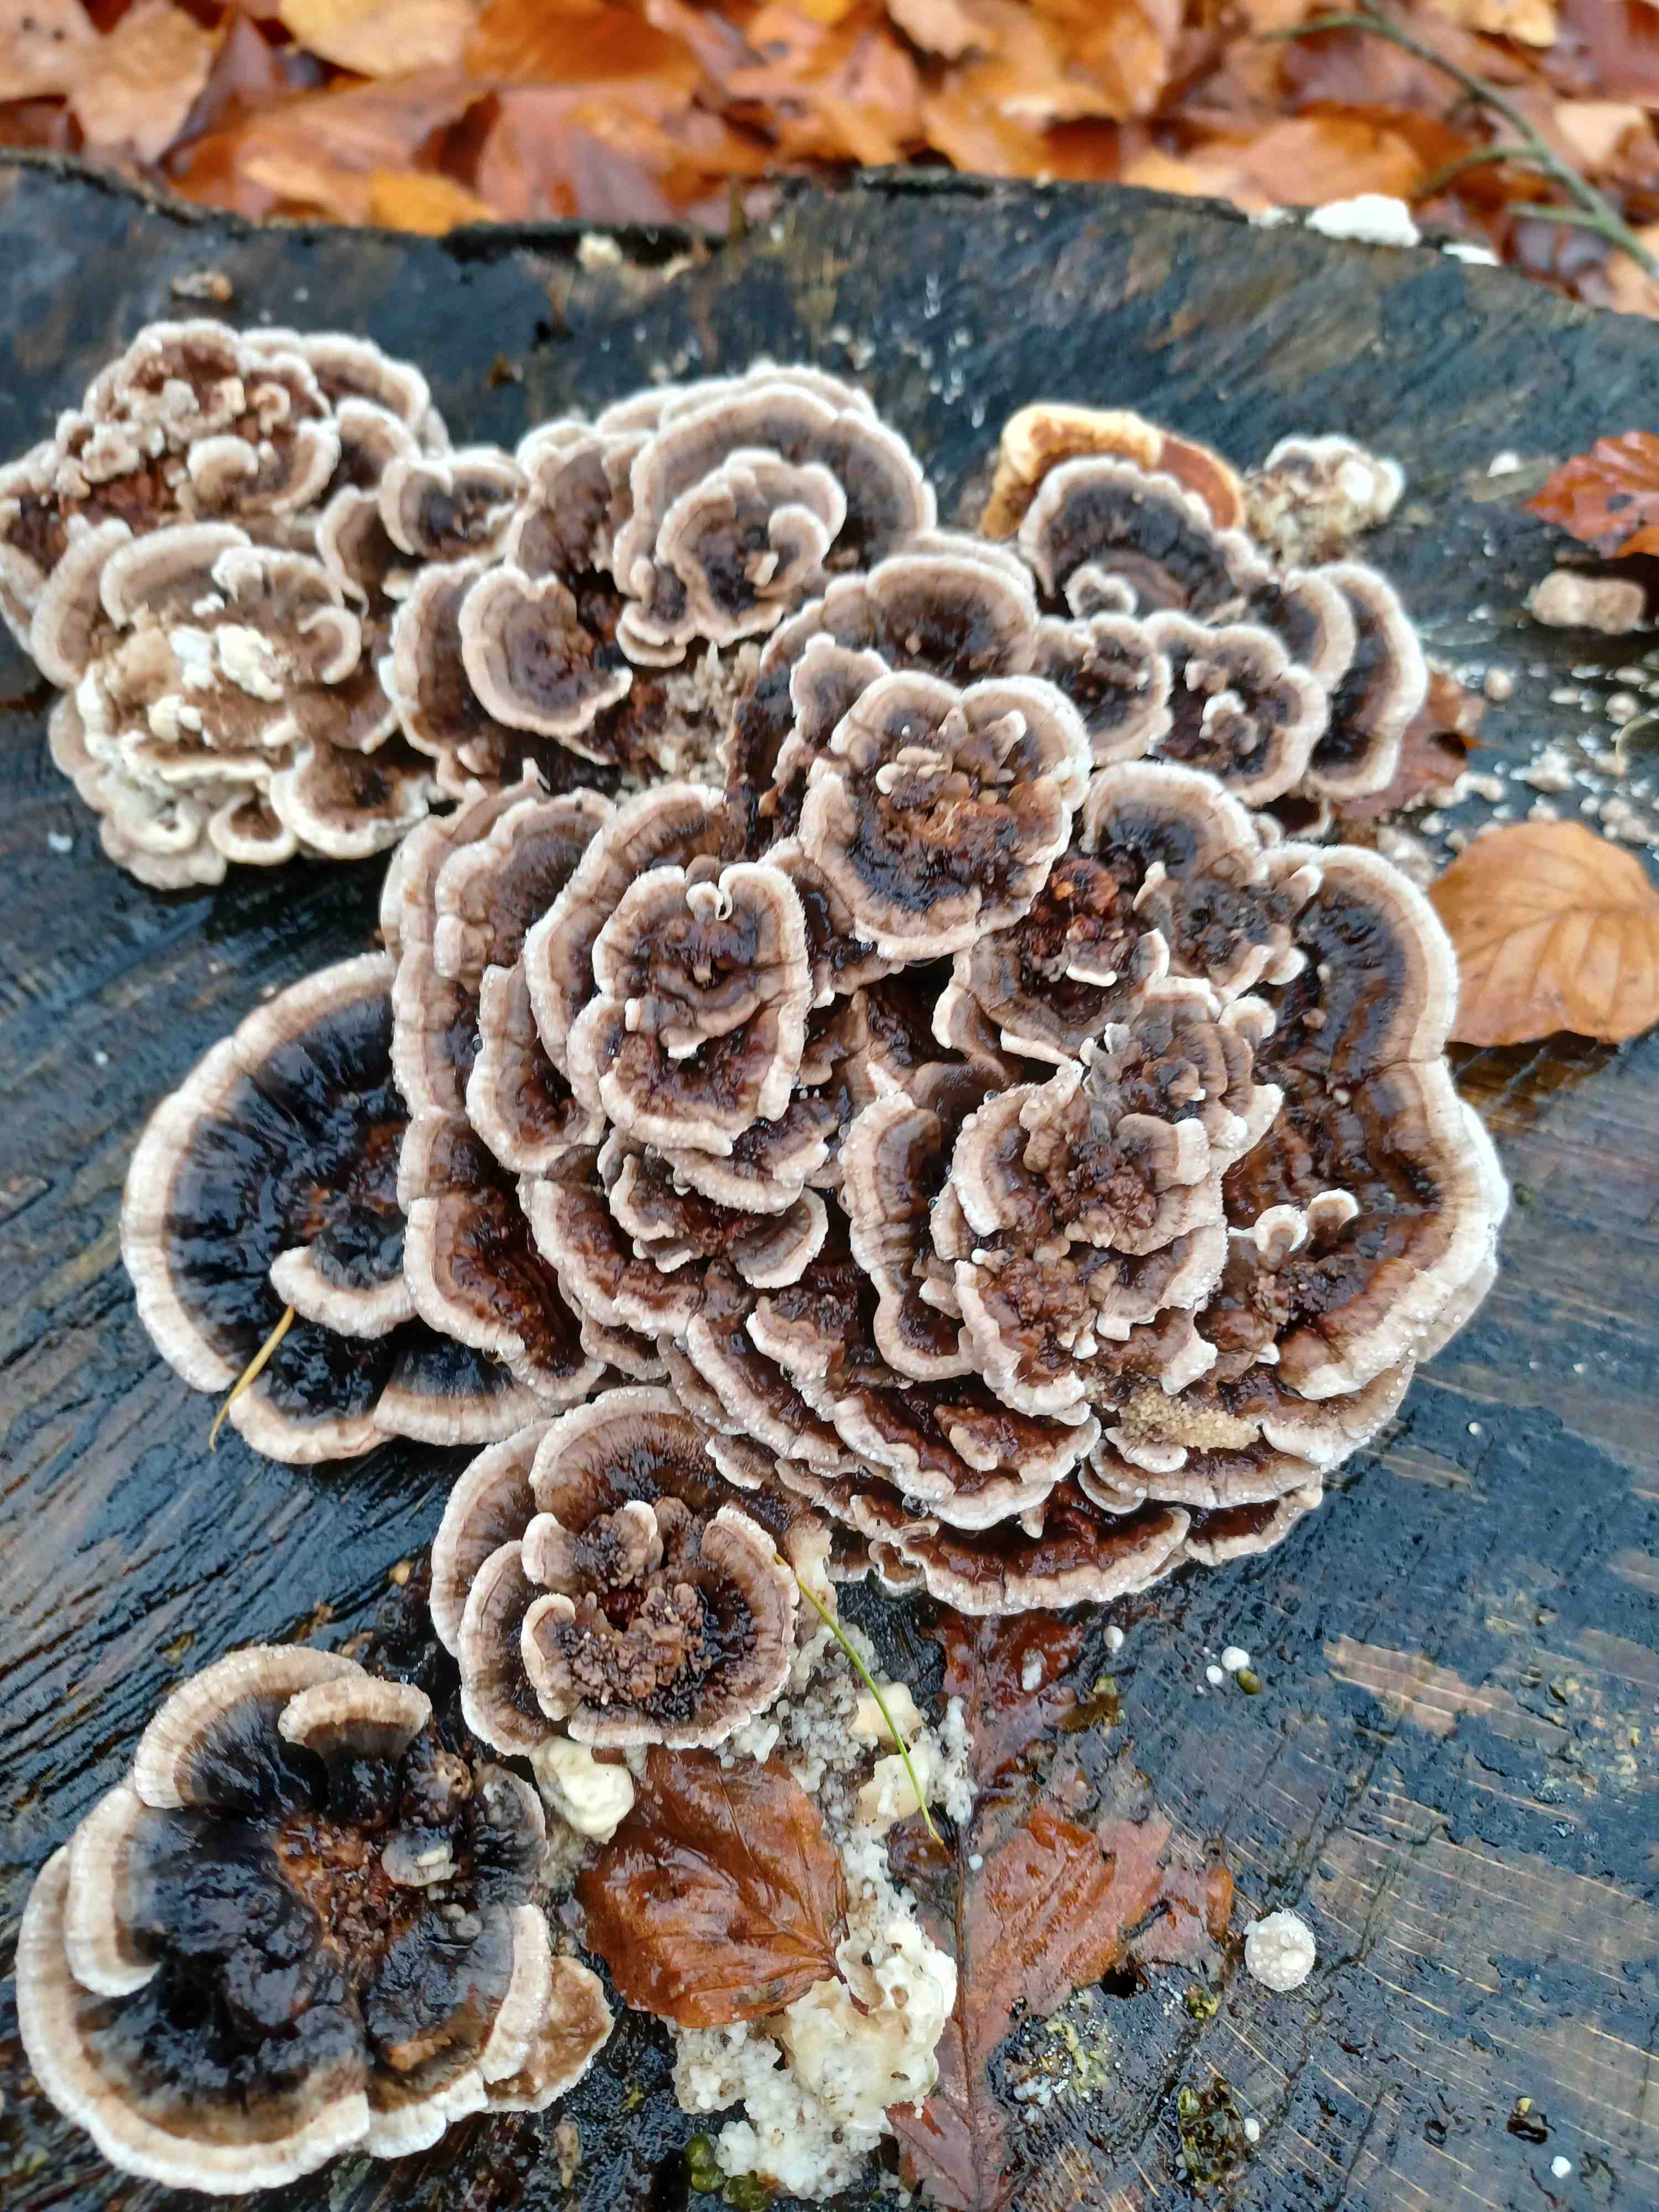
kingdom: Fungi
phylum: Basidiomycota
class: Agaricomycetes
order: Polyporales
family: Polyporaceae
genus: Trametes
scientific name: Trametes versicolor
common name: broget læderporesvamp
